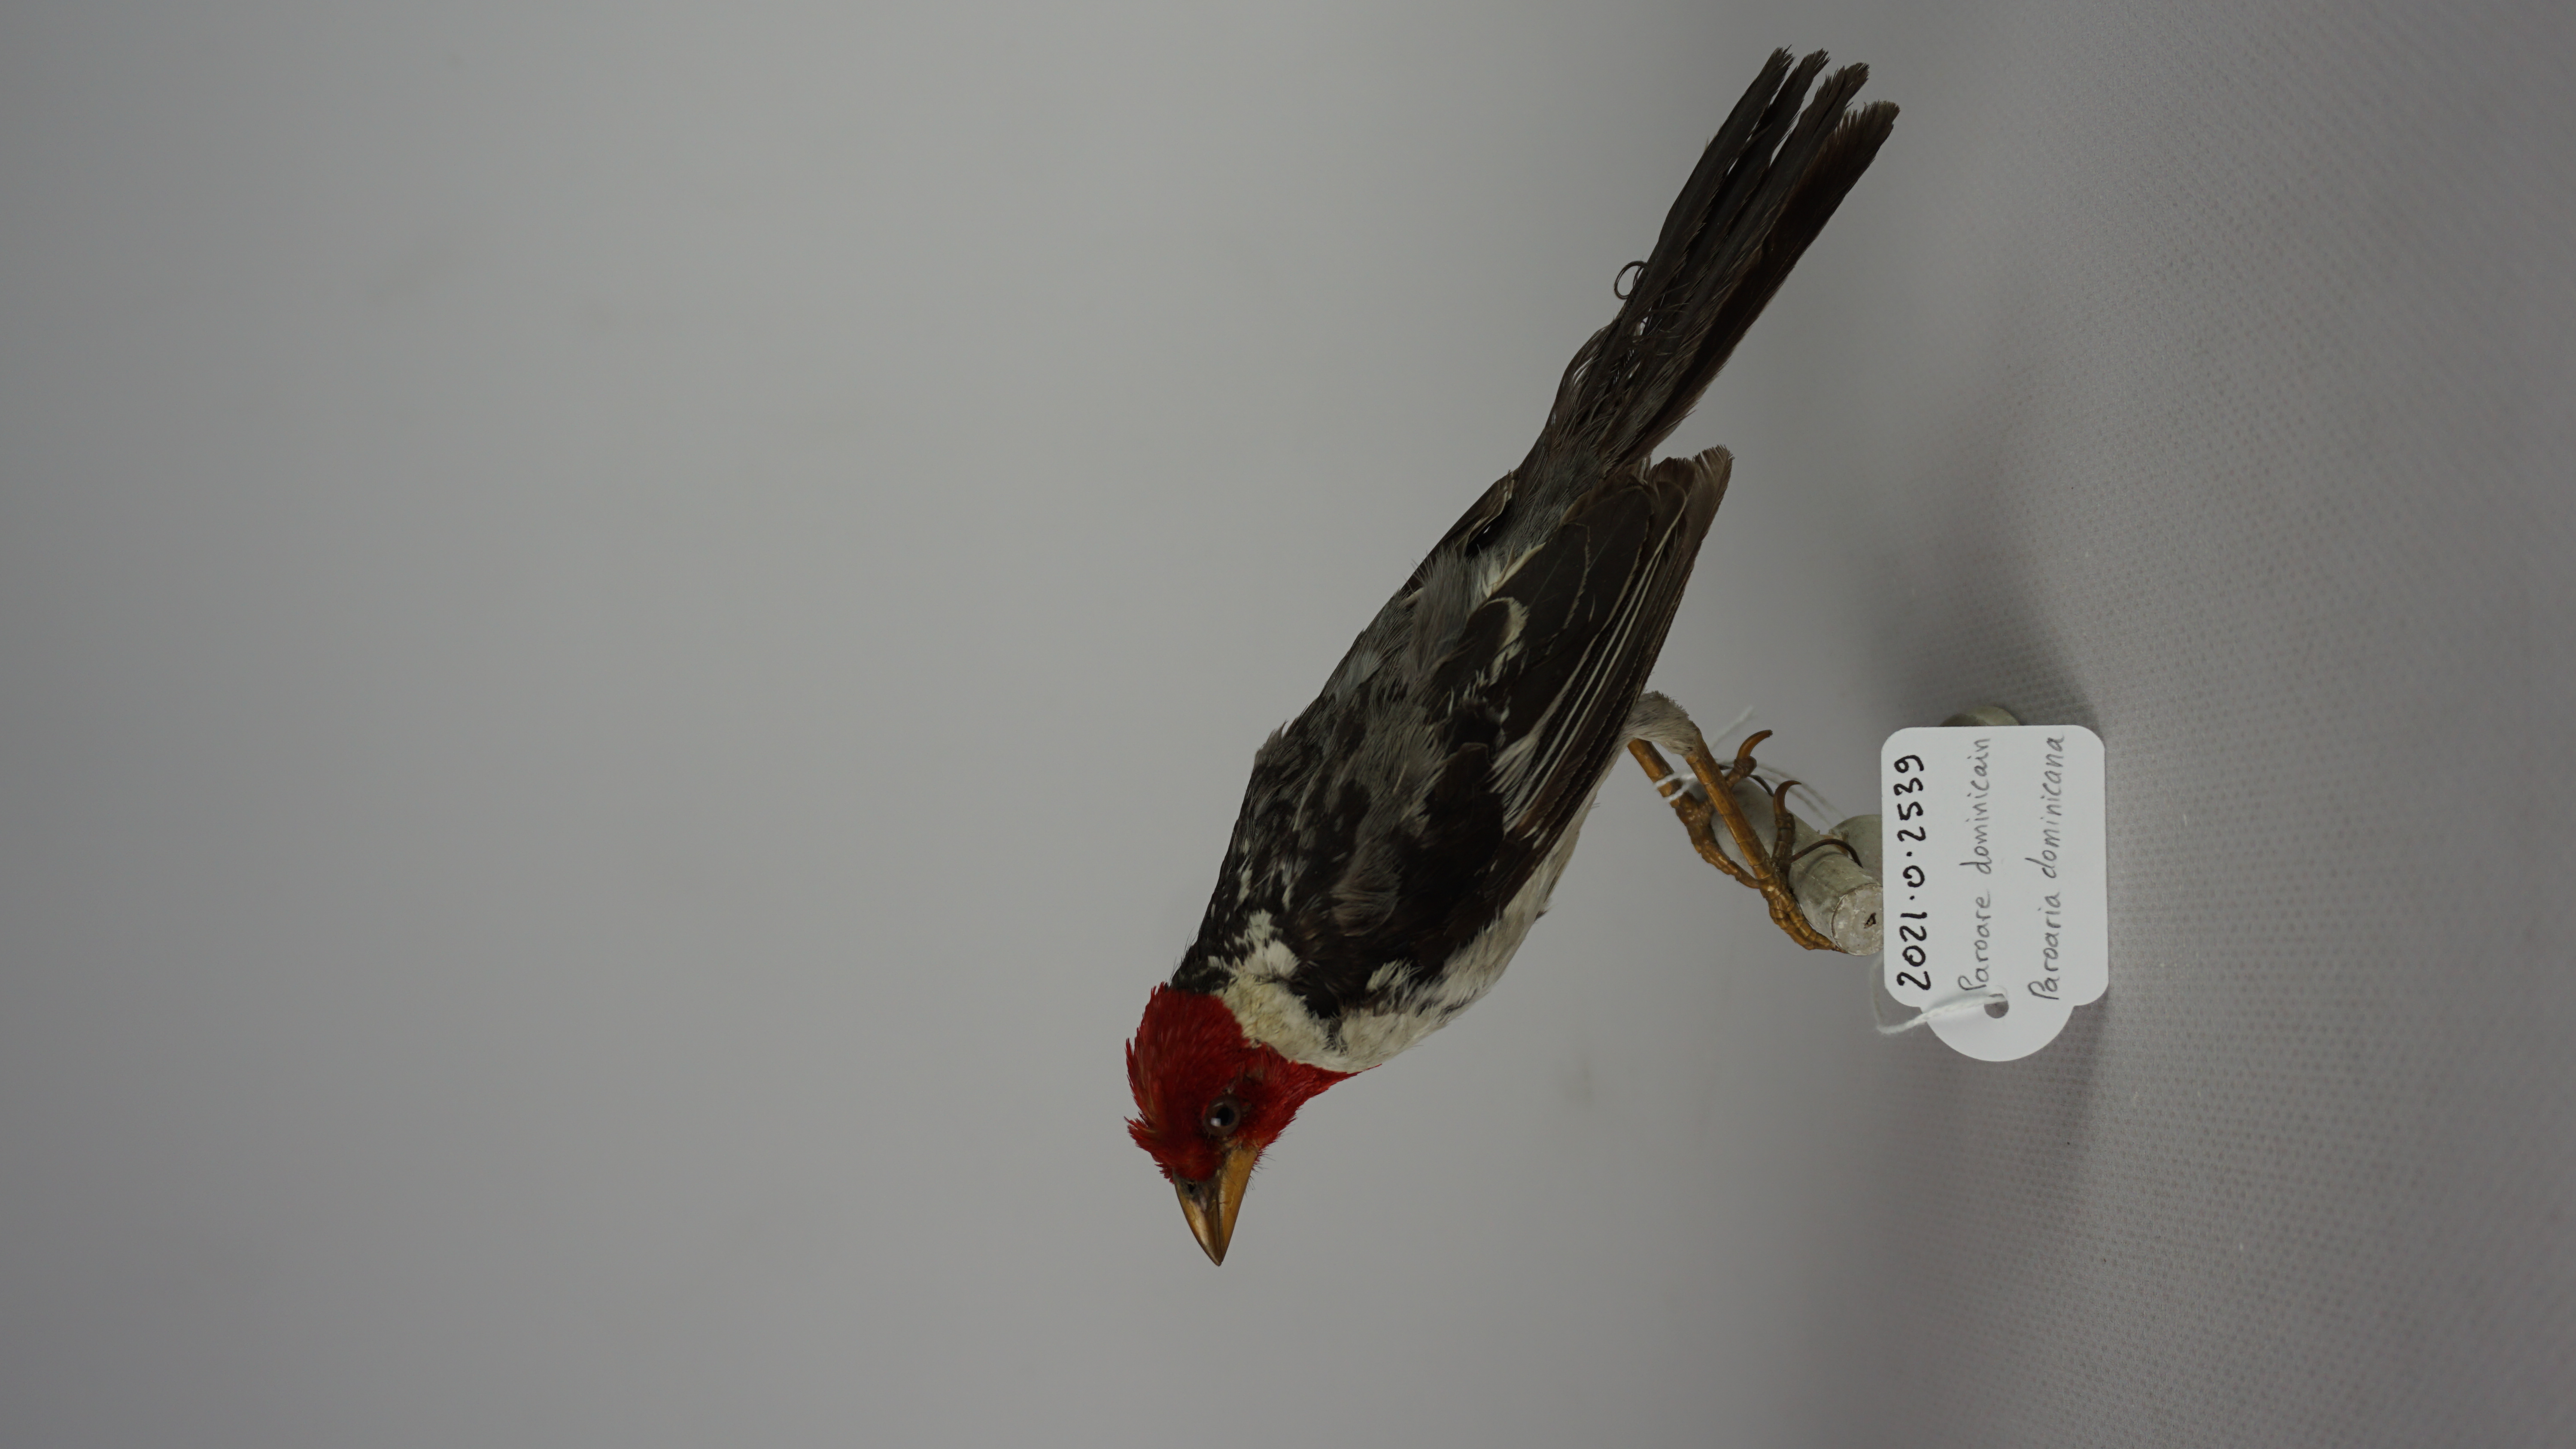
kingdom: Animalia
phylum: Chordata
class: Aves
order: Passeriformes
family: Thraupidae
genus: Paroaria
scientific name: Paroaria dominicana
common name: Red-cowled cardinal
